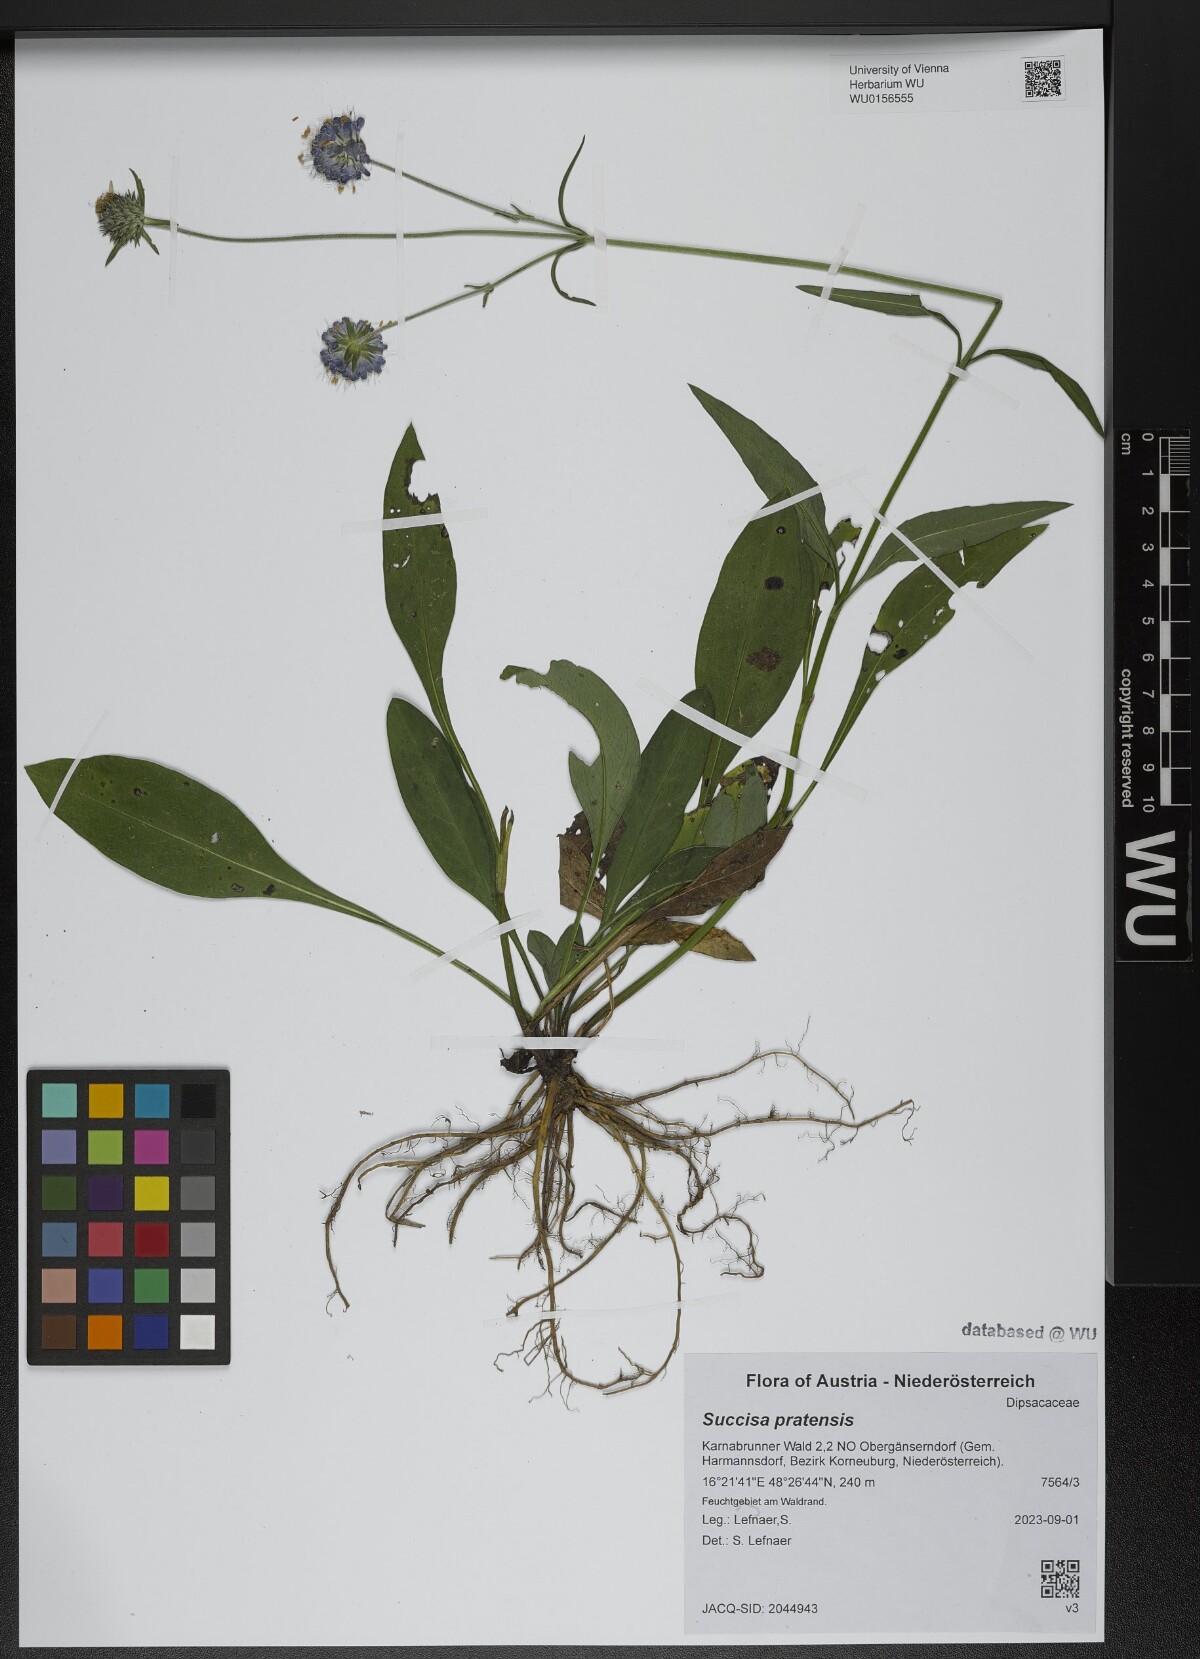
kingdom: Plantae
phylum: Tracheophyta
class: Magnoliopsida
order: Dipsacales
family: Caprifoliaceae
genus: Succisa
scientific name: Succisa pratensis
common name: Devil's-bit
